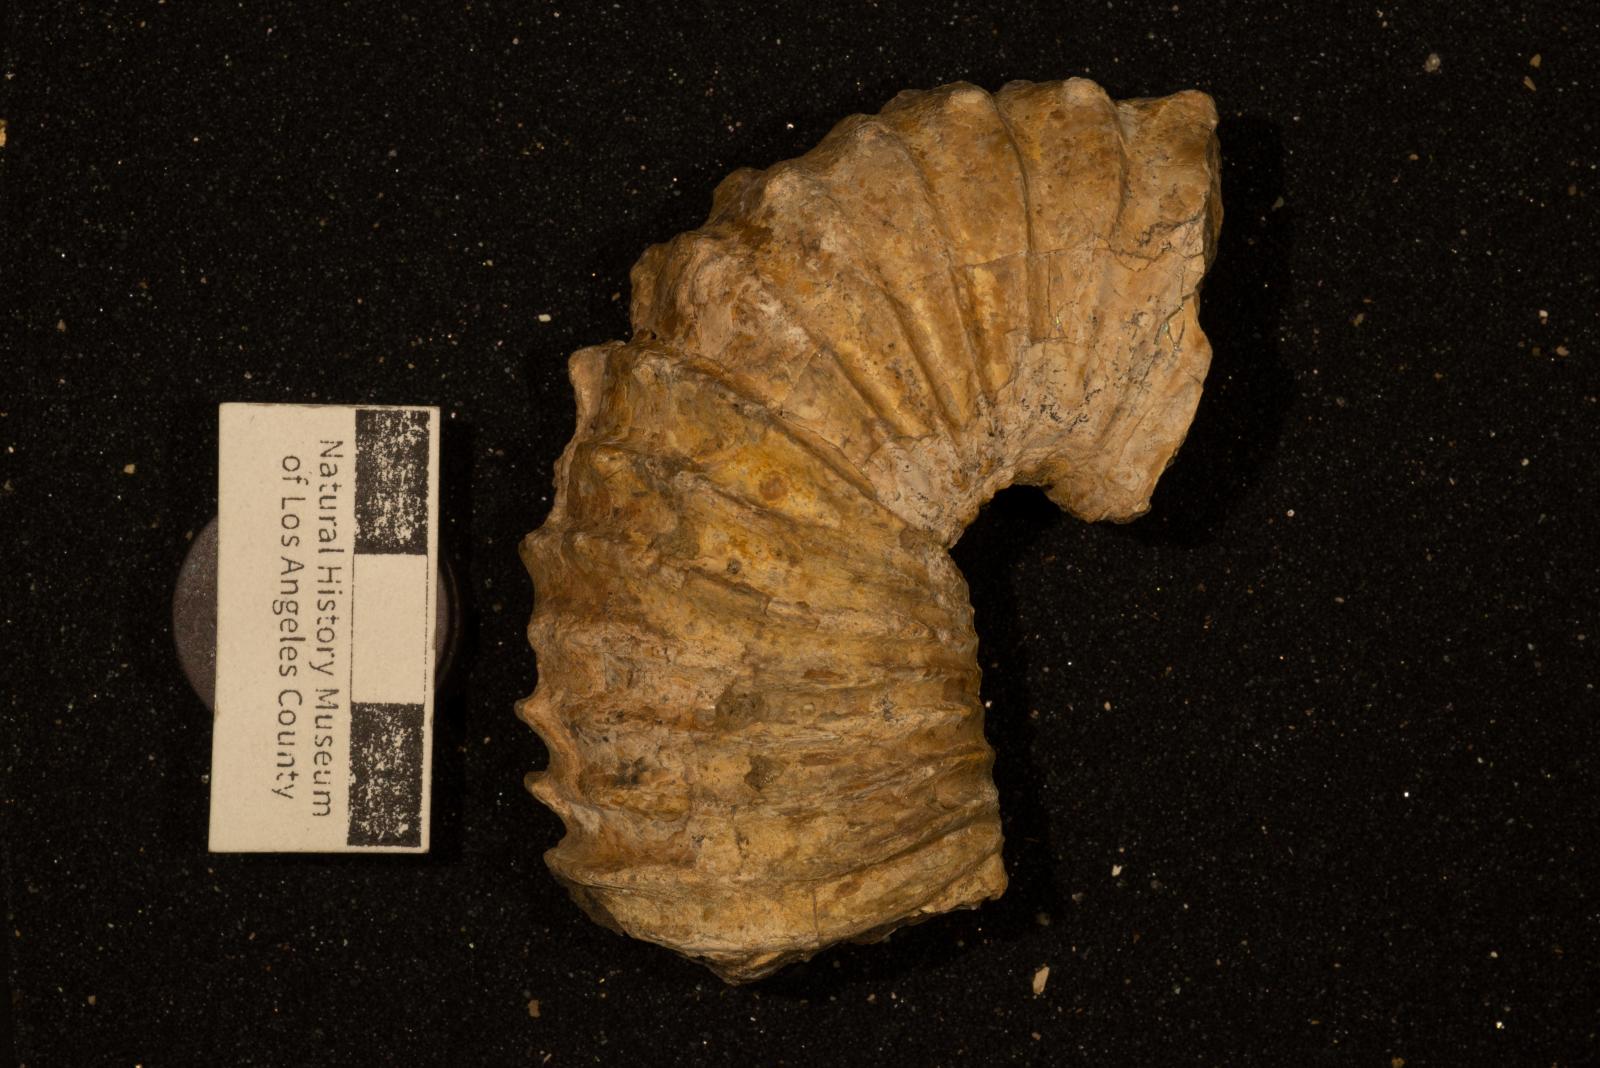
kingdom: Animalia
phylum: Mollusca
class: Cephalopoda
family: Nostoceratidae
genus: Didymoceras
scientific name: Didymoceras draconis
